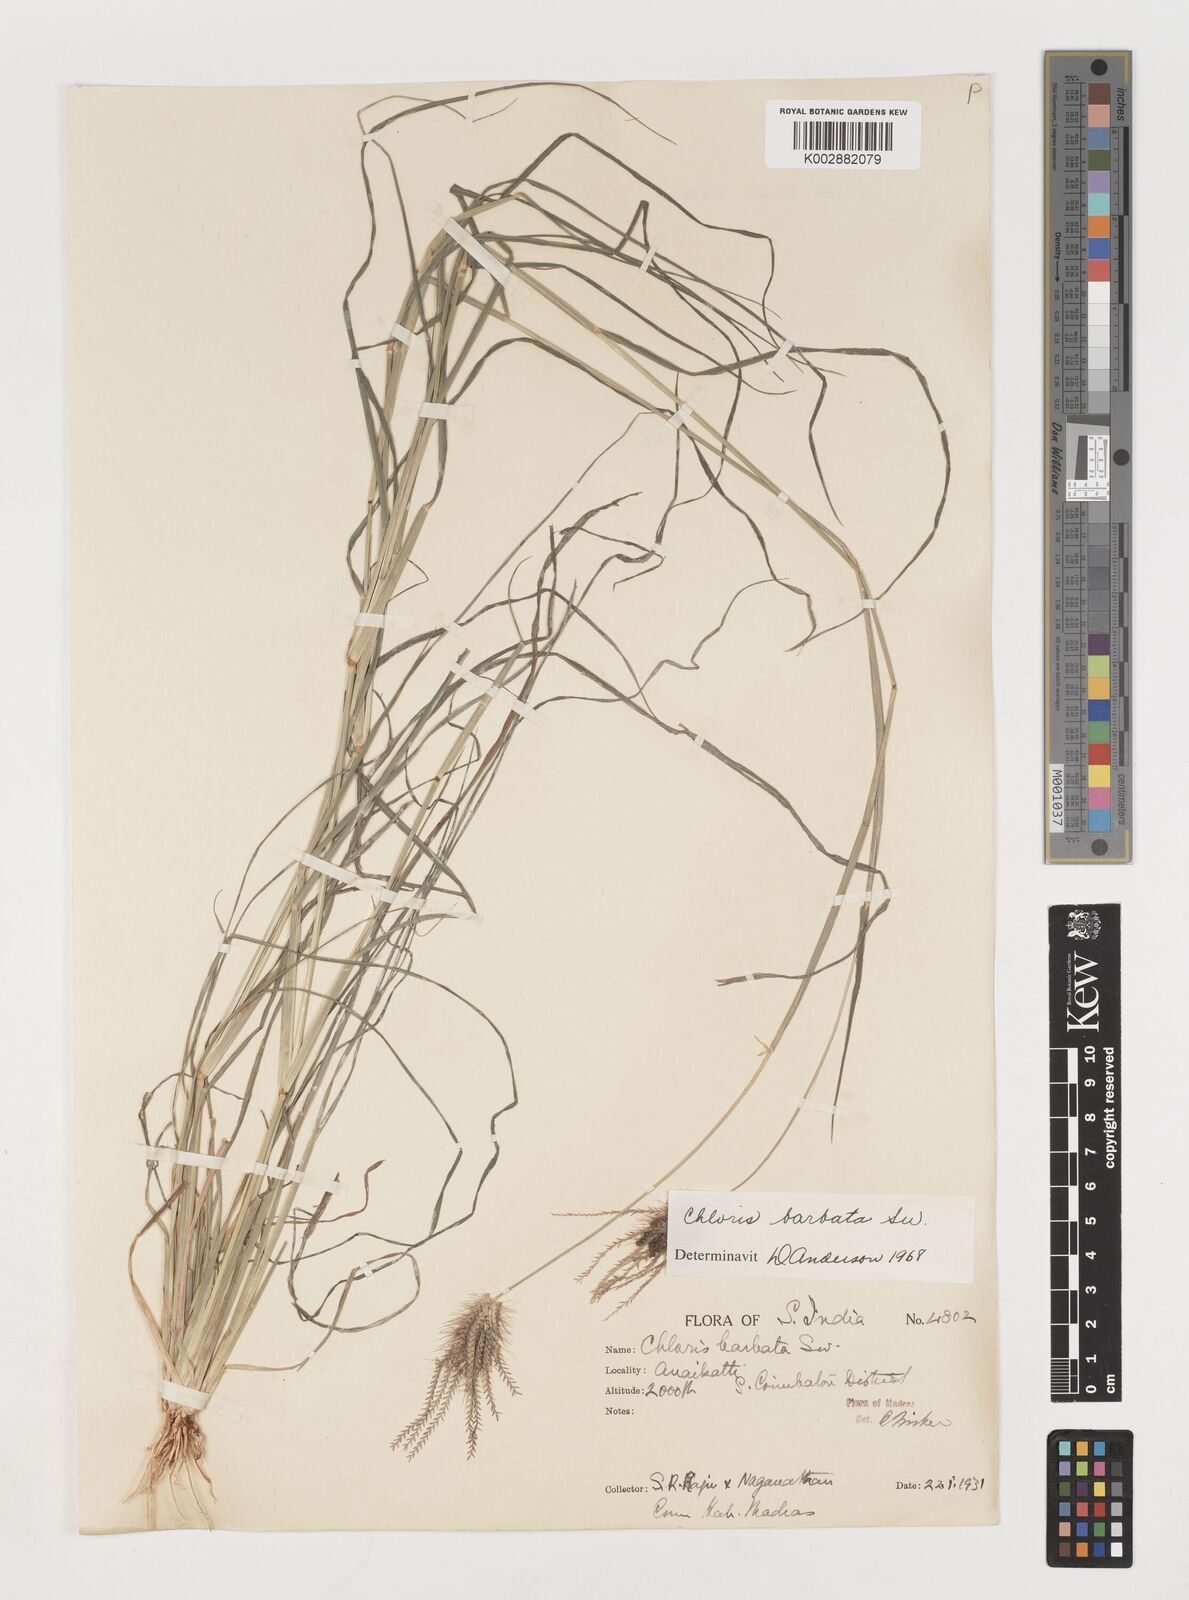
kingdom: Plantae
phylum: Tracheophyta
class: Liliopsida
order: Poales
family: Poaceae
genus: Chloris
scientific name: Chloris barbata
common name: Swollen fingergrass
